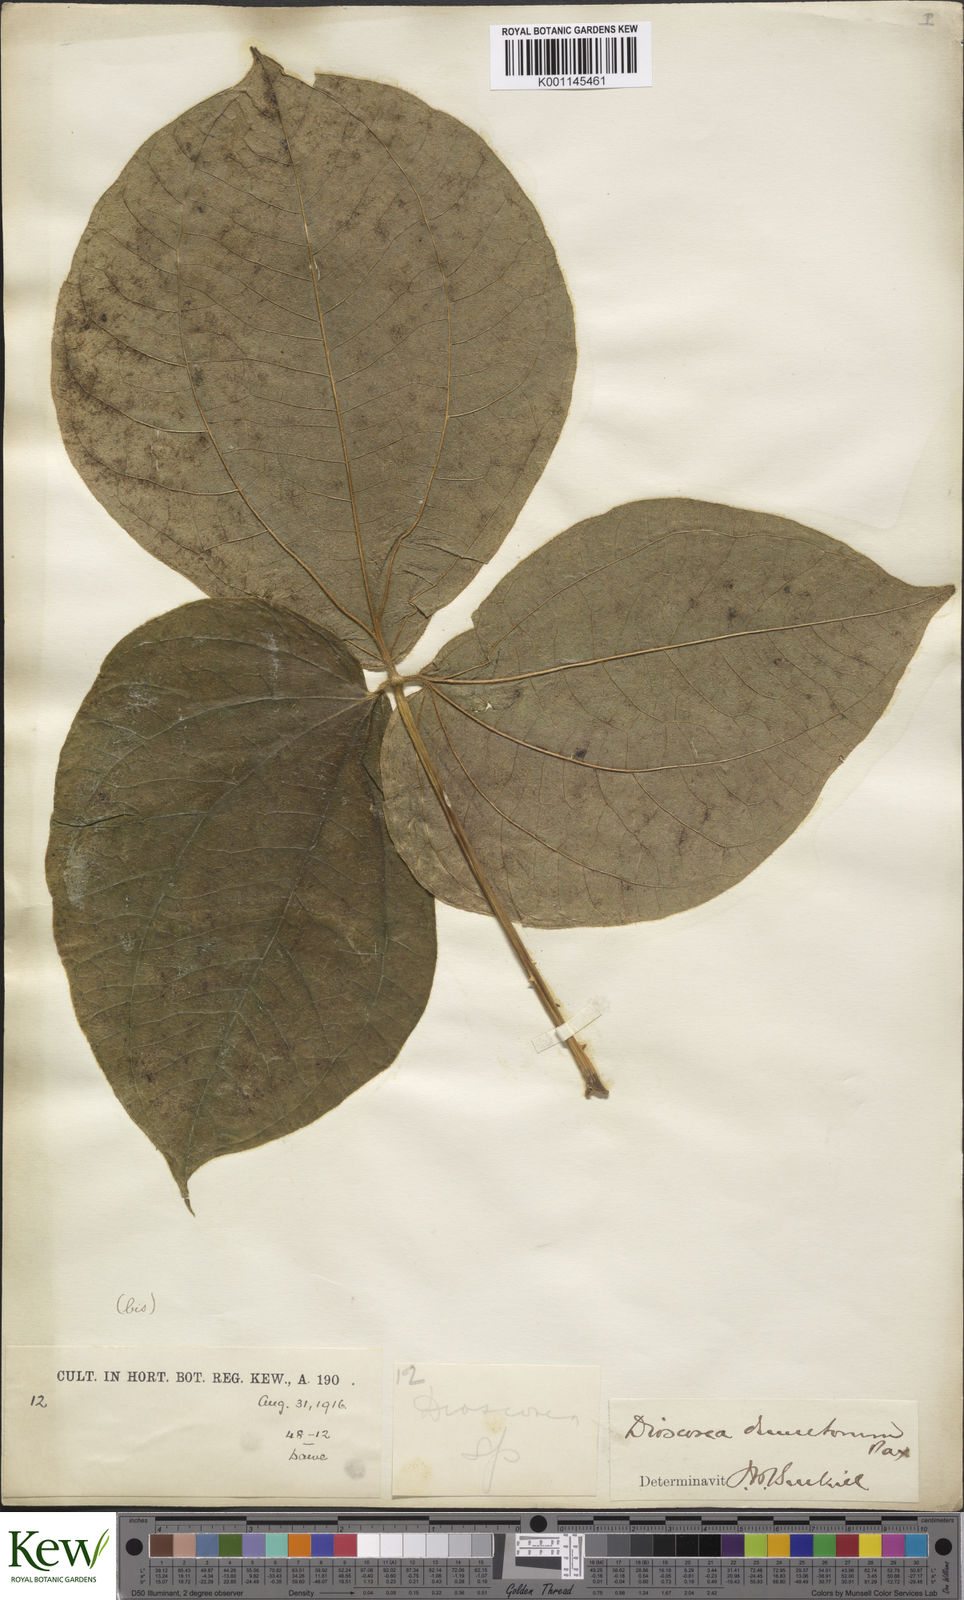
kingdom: Plantae
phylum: Tracheophyta
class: Liliopsida
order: Dioscoreales
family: Dioscoreaceae
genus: Dioscorea
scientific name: Dioscorea dumetorum
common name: African bitter yam
